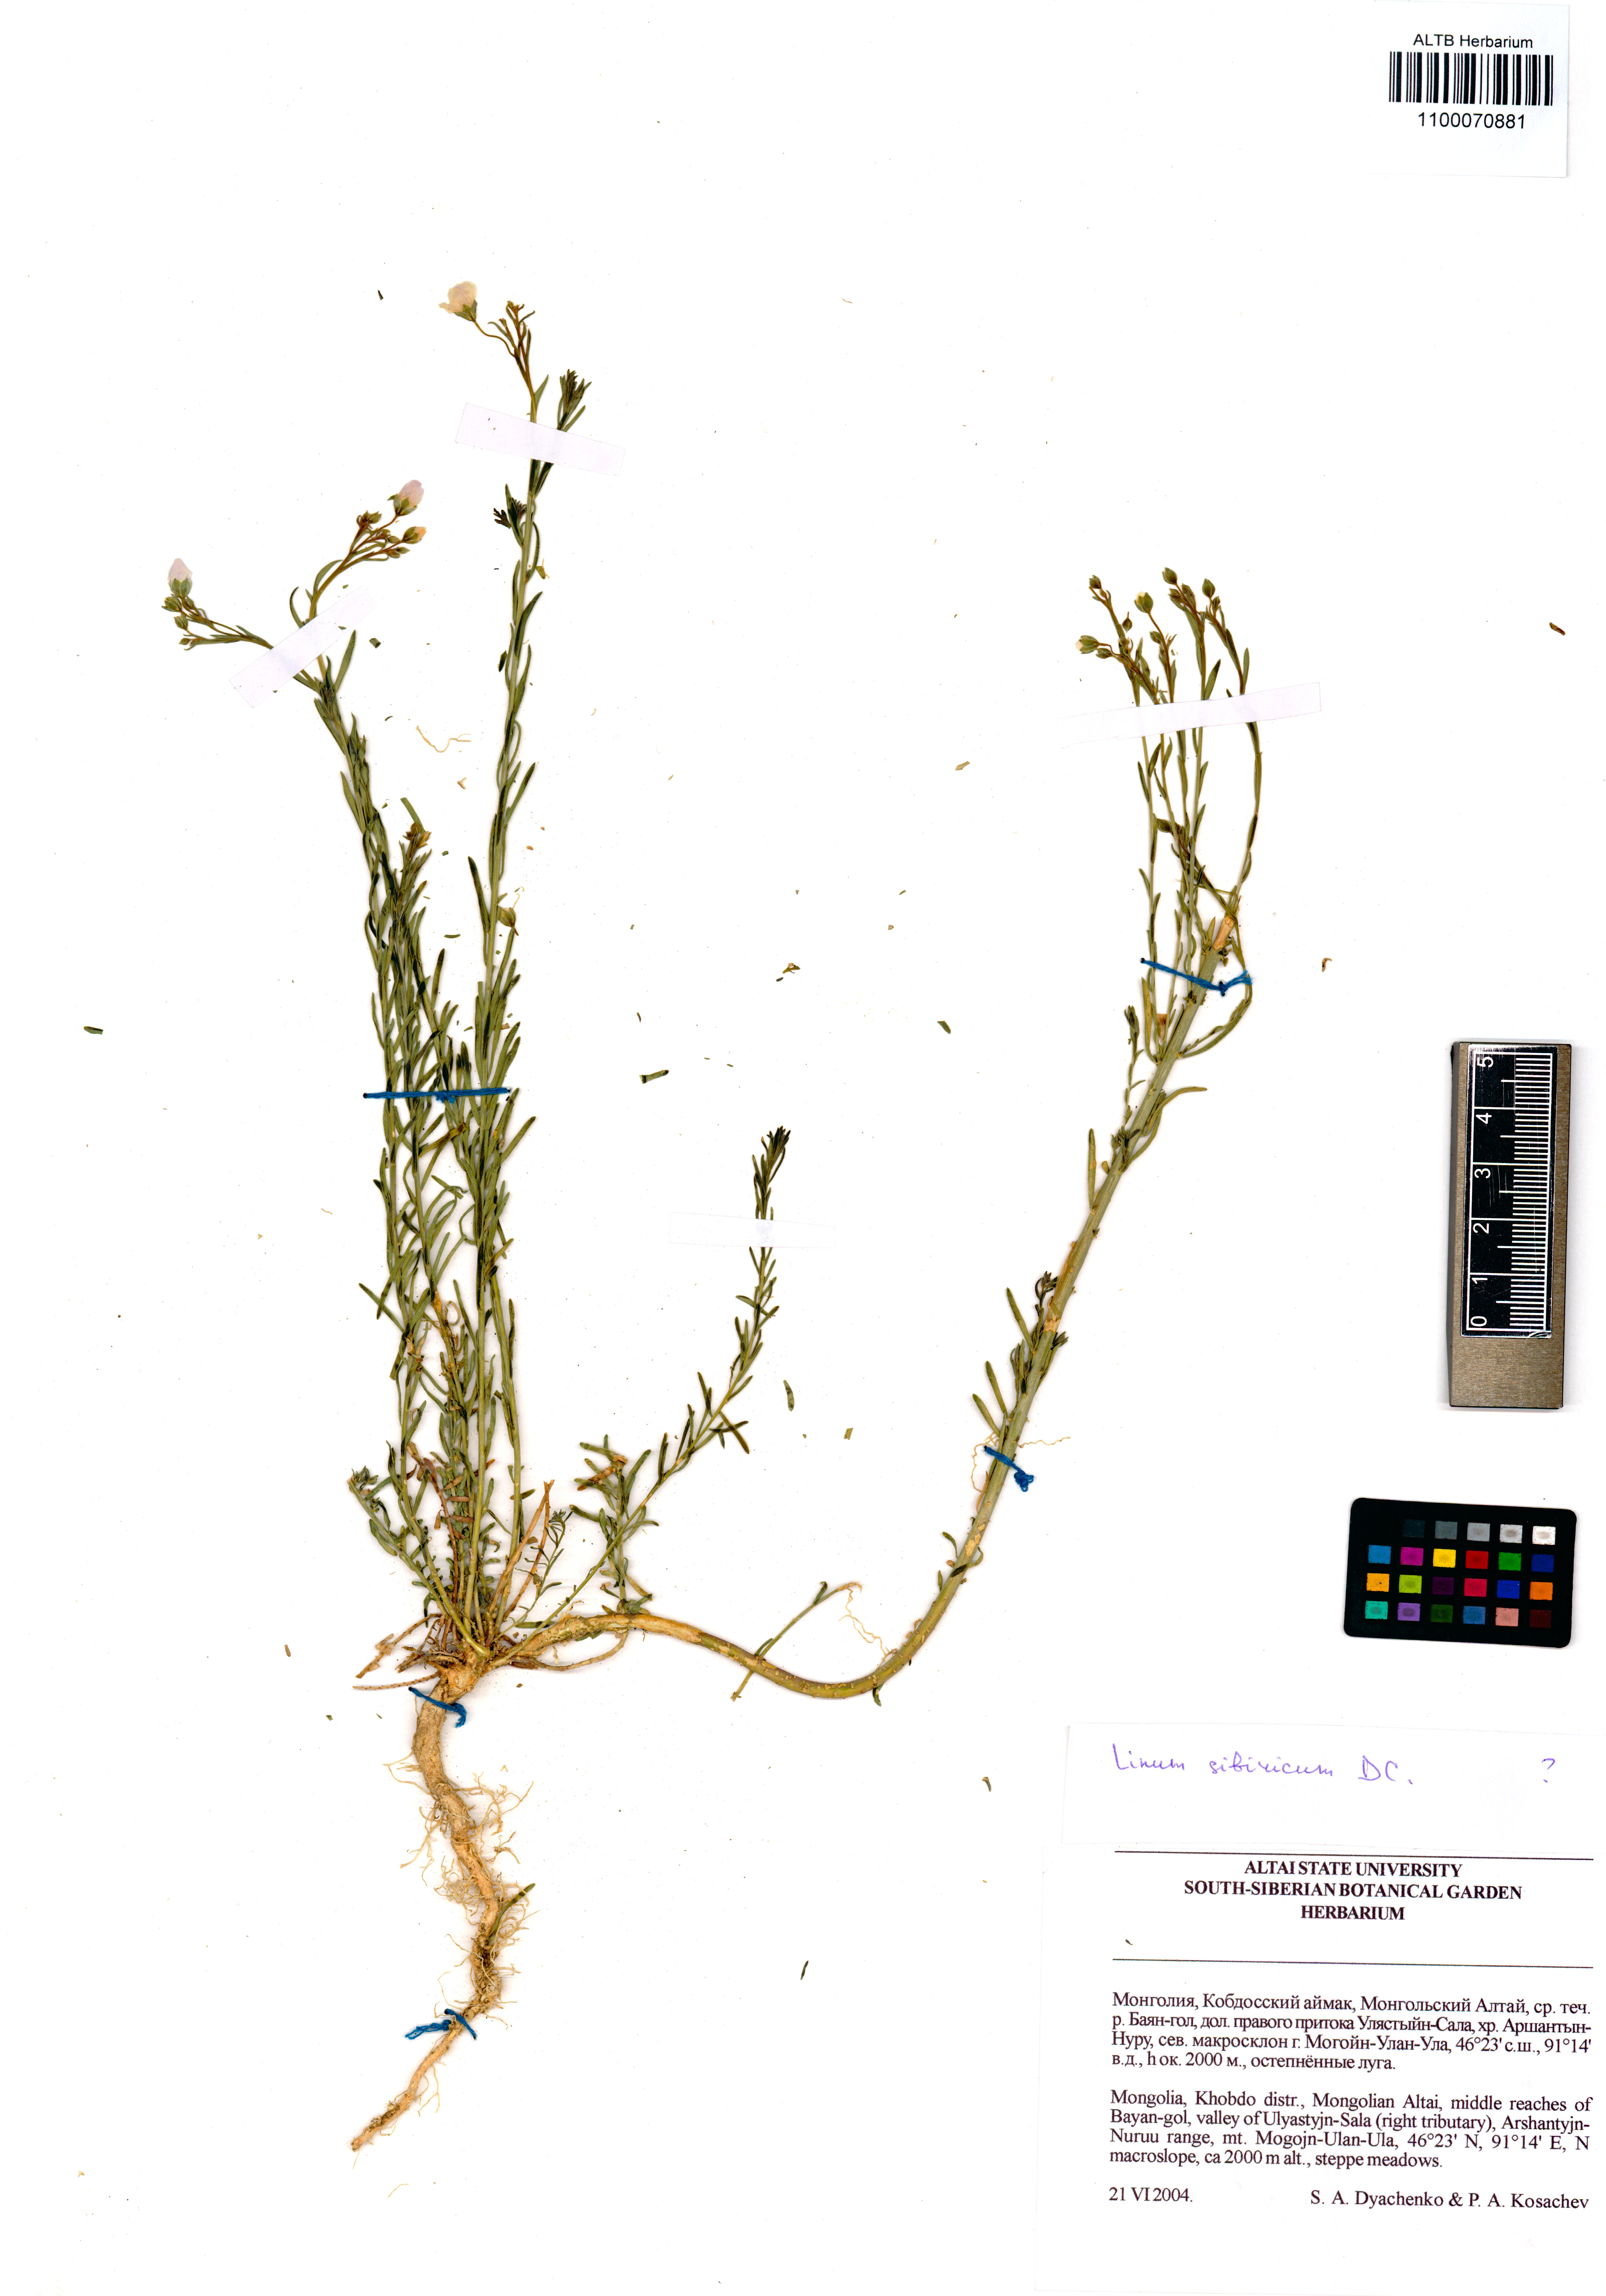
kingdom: Plantae
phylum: Tracheophyta
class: Magnoliopsida
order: Malpighiales
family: Linaceae
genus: Linum
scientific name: Linum perenne
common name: Blue flax
